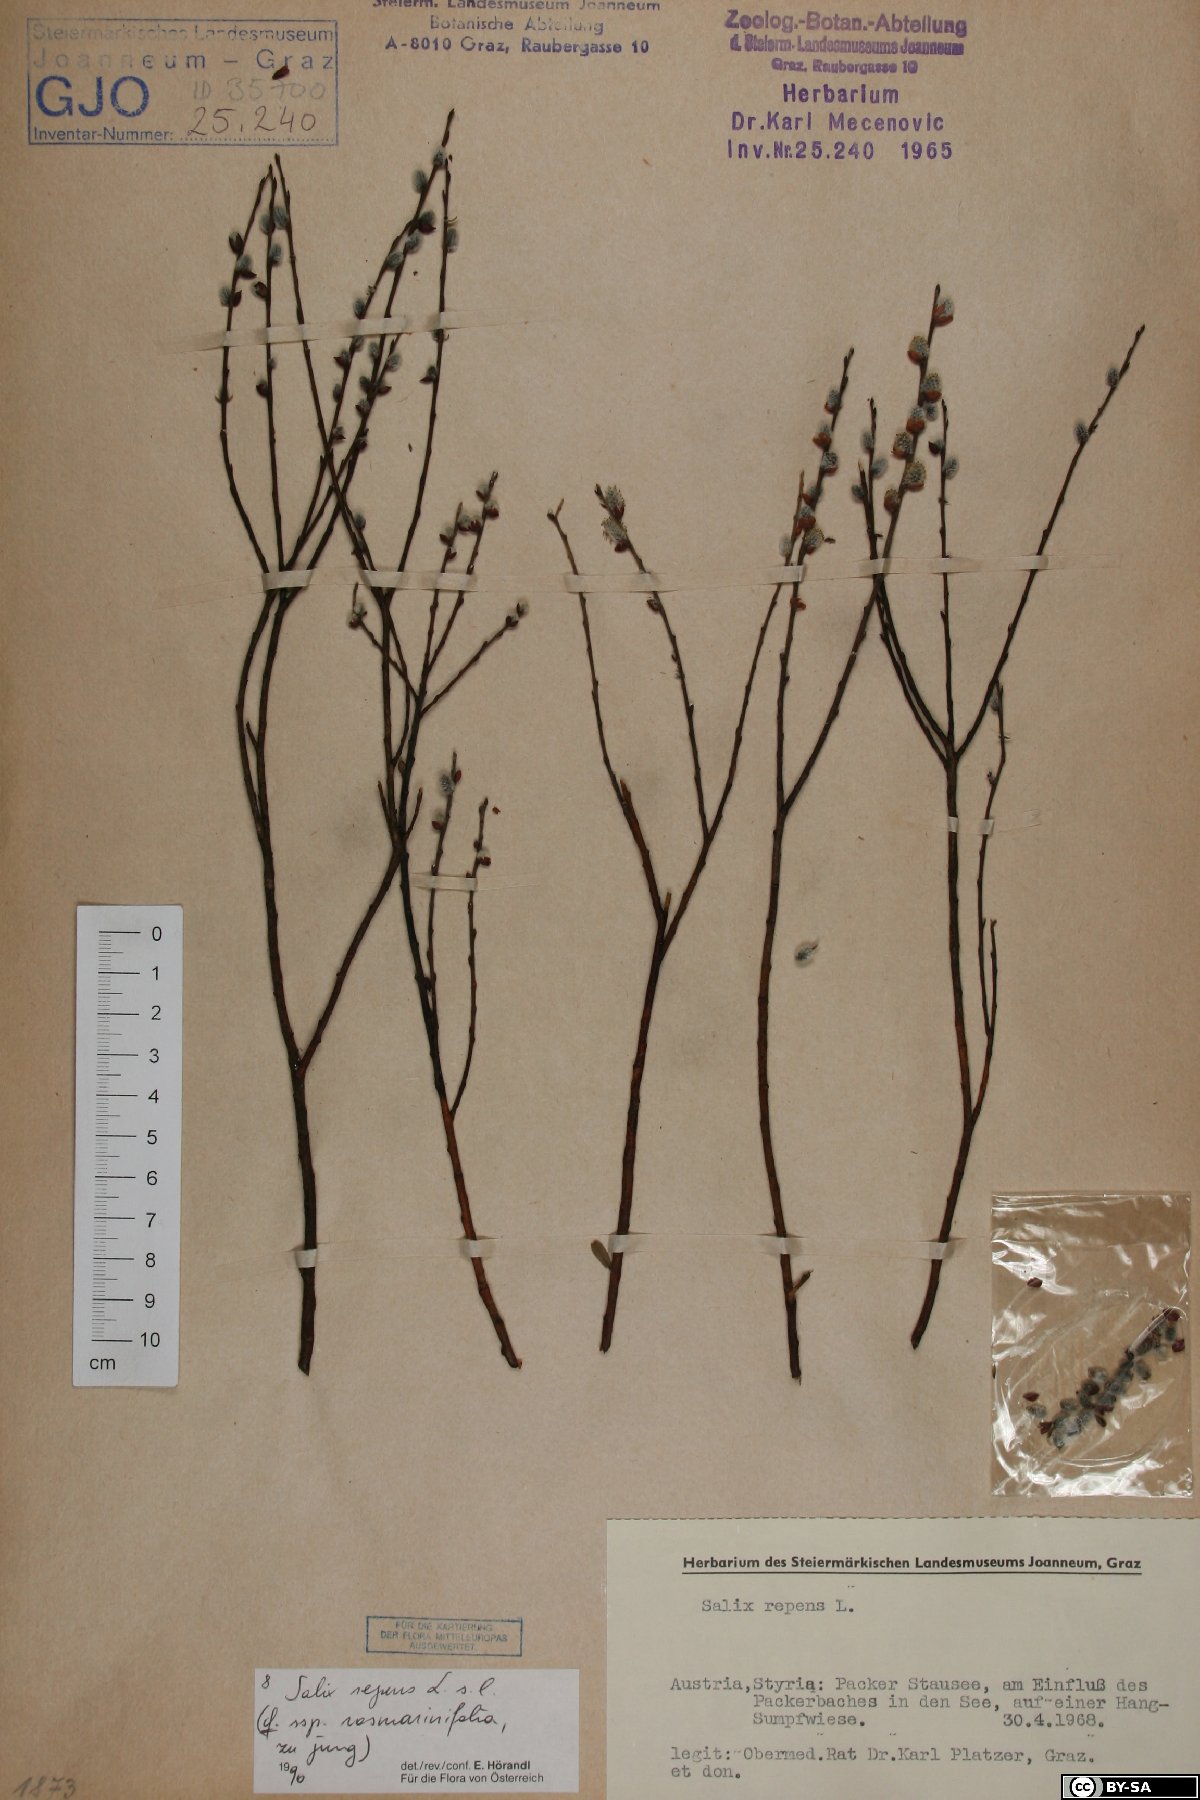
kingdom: Plantae
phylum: Tracheophyta
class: Magnoliopsida
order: Malpighiales
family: Salicaceae
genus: Salix
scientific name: Salix repens
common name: Creeping willow
